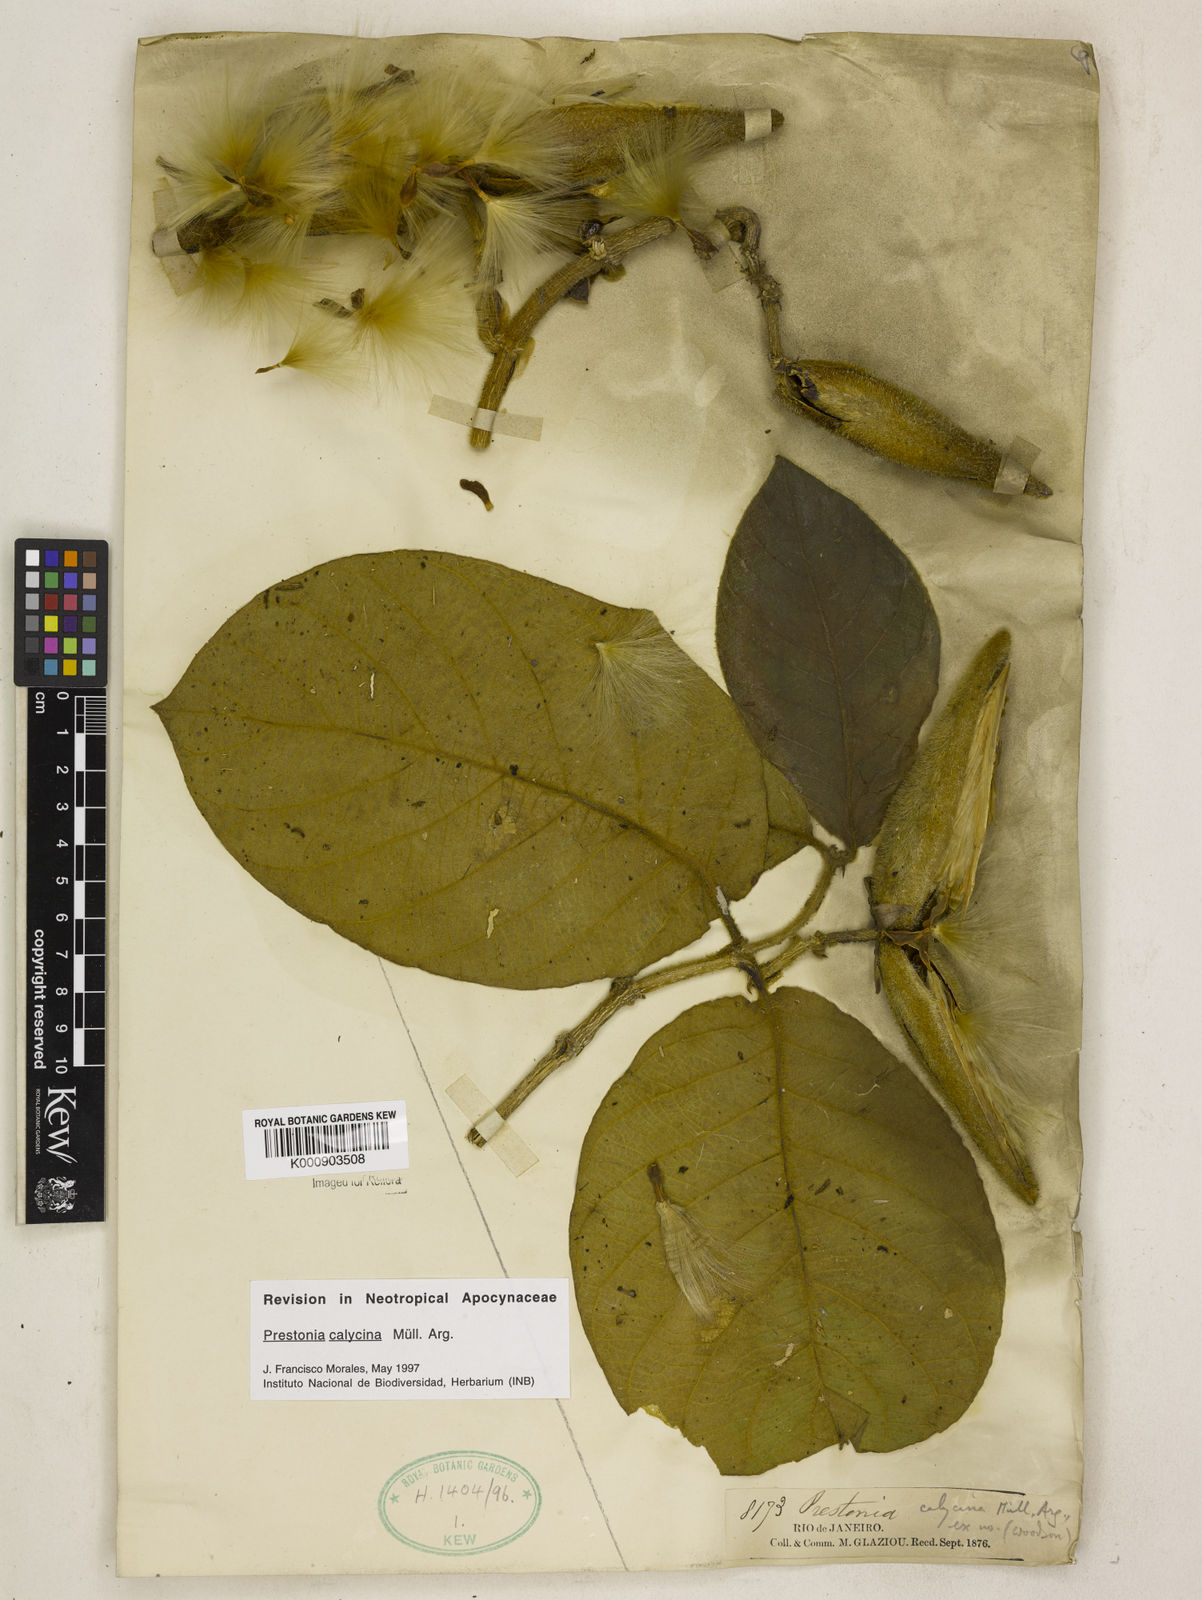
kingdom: Plantae
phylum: Tracheophyta
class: Magnoliopsida
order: Gentianales
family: Apocynaceae
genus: Prestonia
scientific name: Prestonia
